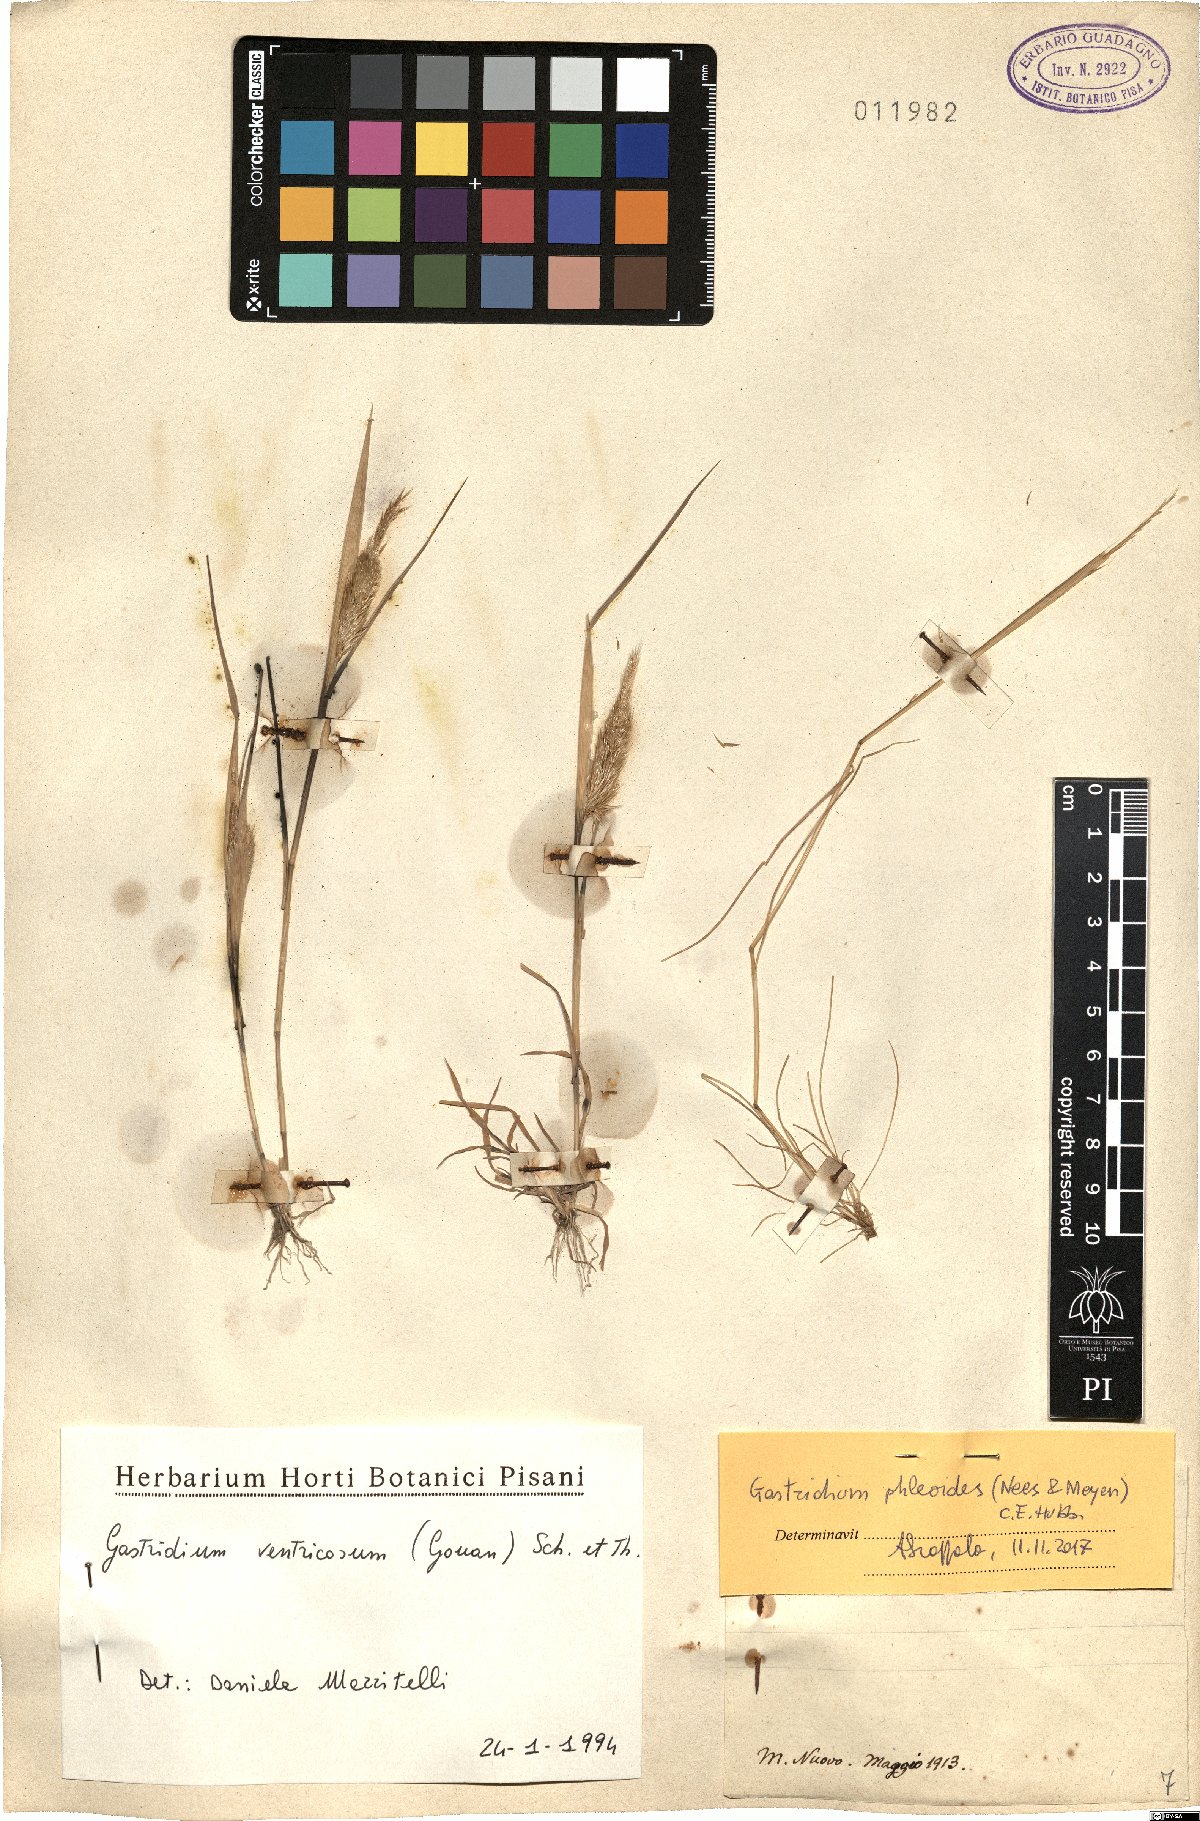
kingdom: Plantae
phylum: Tracheophyta
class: Liliopsida
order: Poales
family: Poaceae
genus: Gastridium
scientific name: Gastridium phleoides
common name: Nit grass
